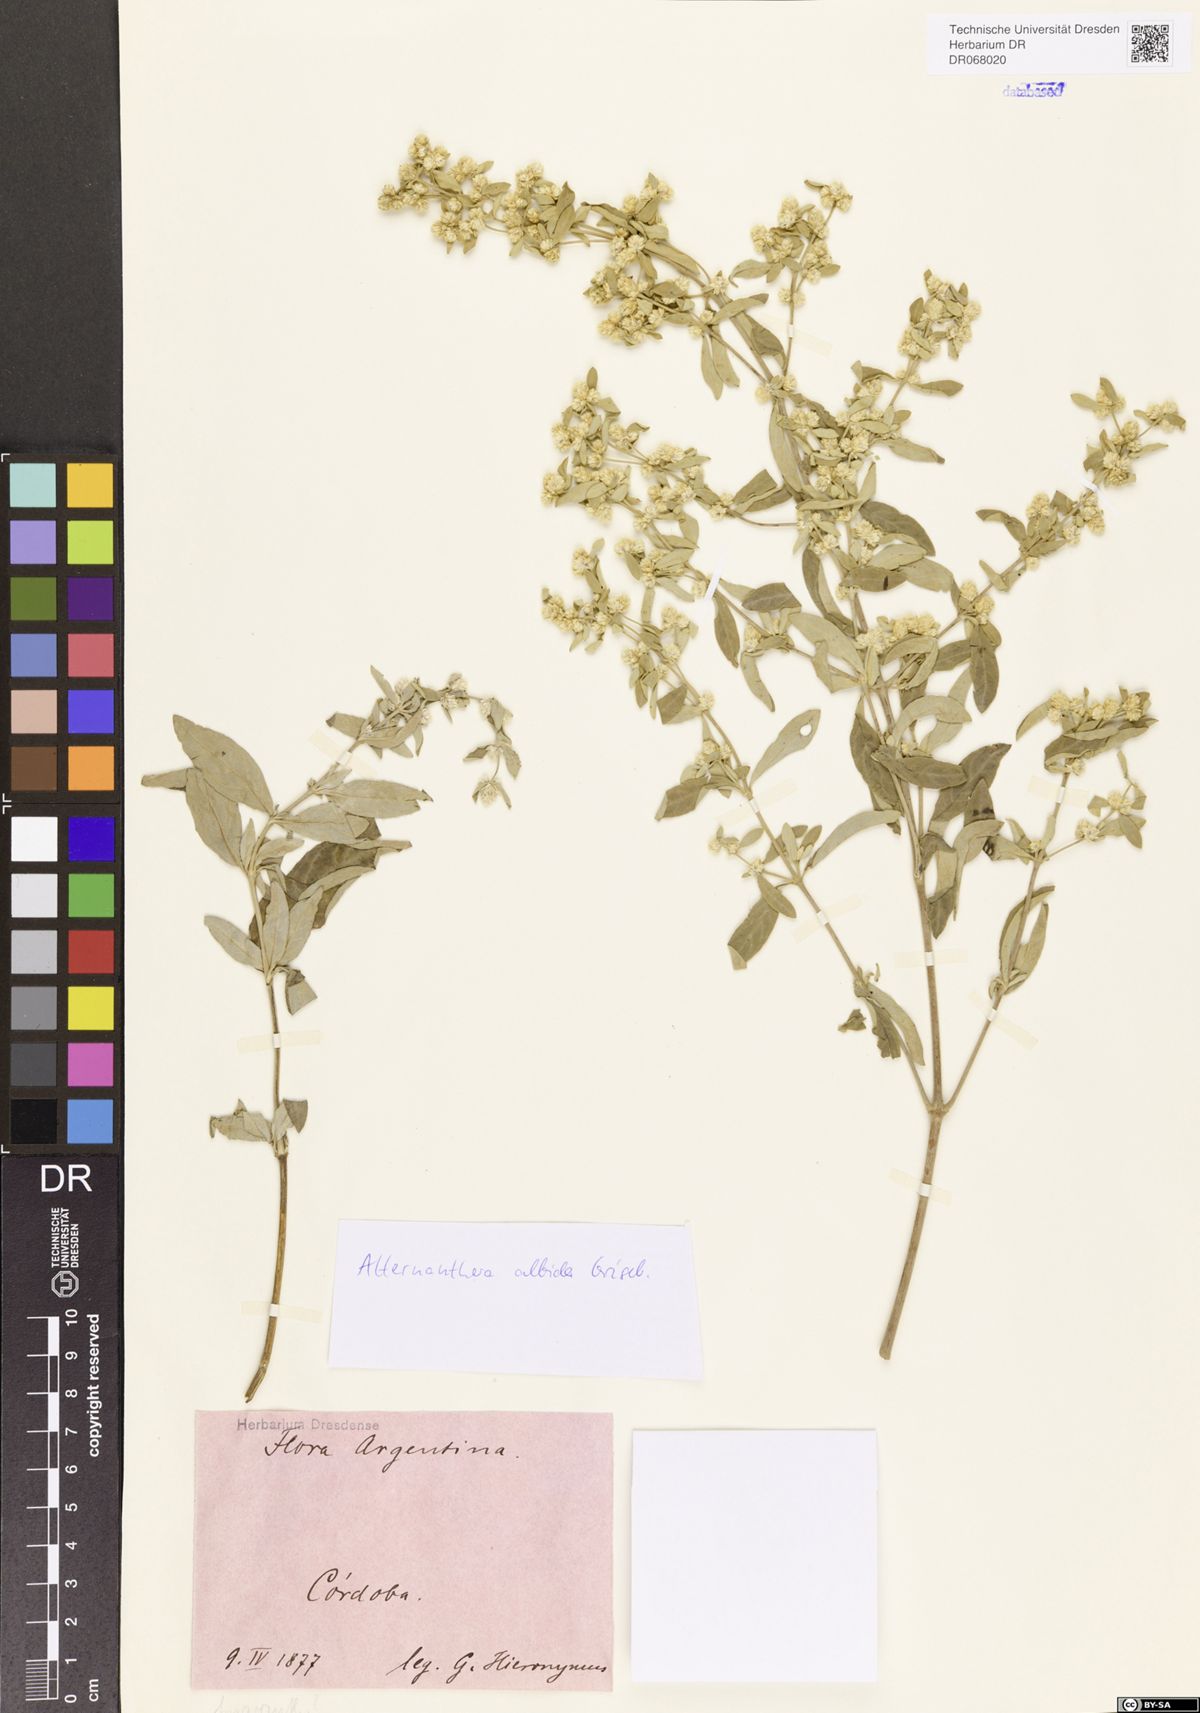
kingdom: Plantae
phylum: Tracheophyta
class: Magnoliopsida
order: Caryophyllales
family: Amaranthaceae
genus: Alternanthera
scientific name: Alternanthera albida
